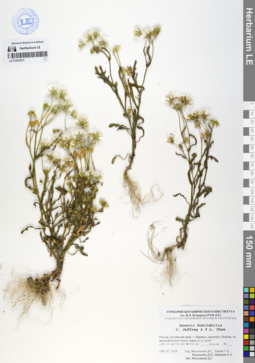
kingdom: Plantae
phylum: Tracheophyta
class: Magnoliopsida
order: Asterales
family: Asteraceae
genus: Senecio
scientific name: Senecio dubitabilis
